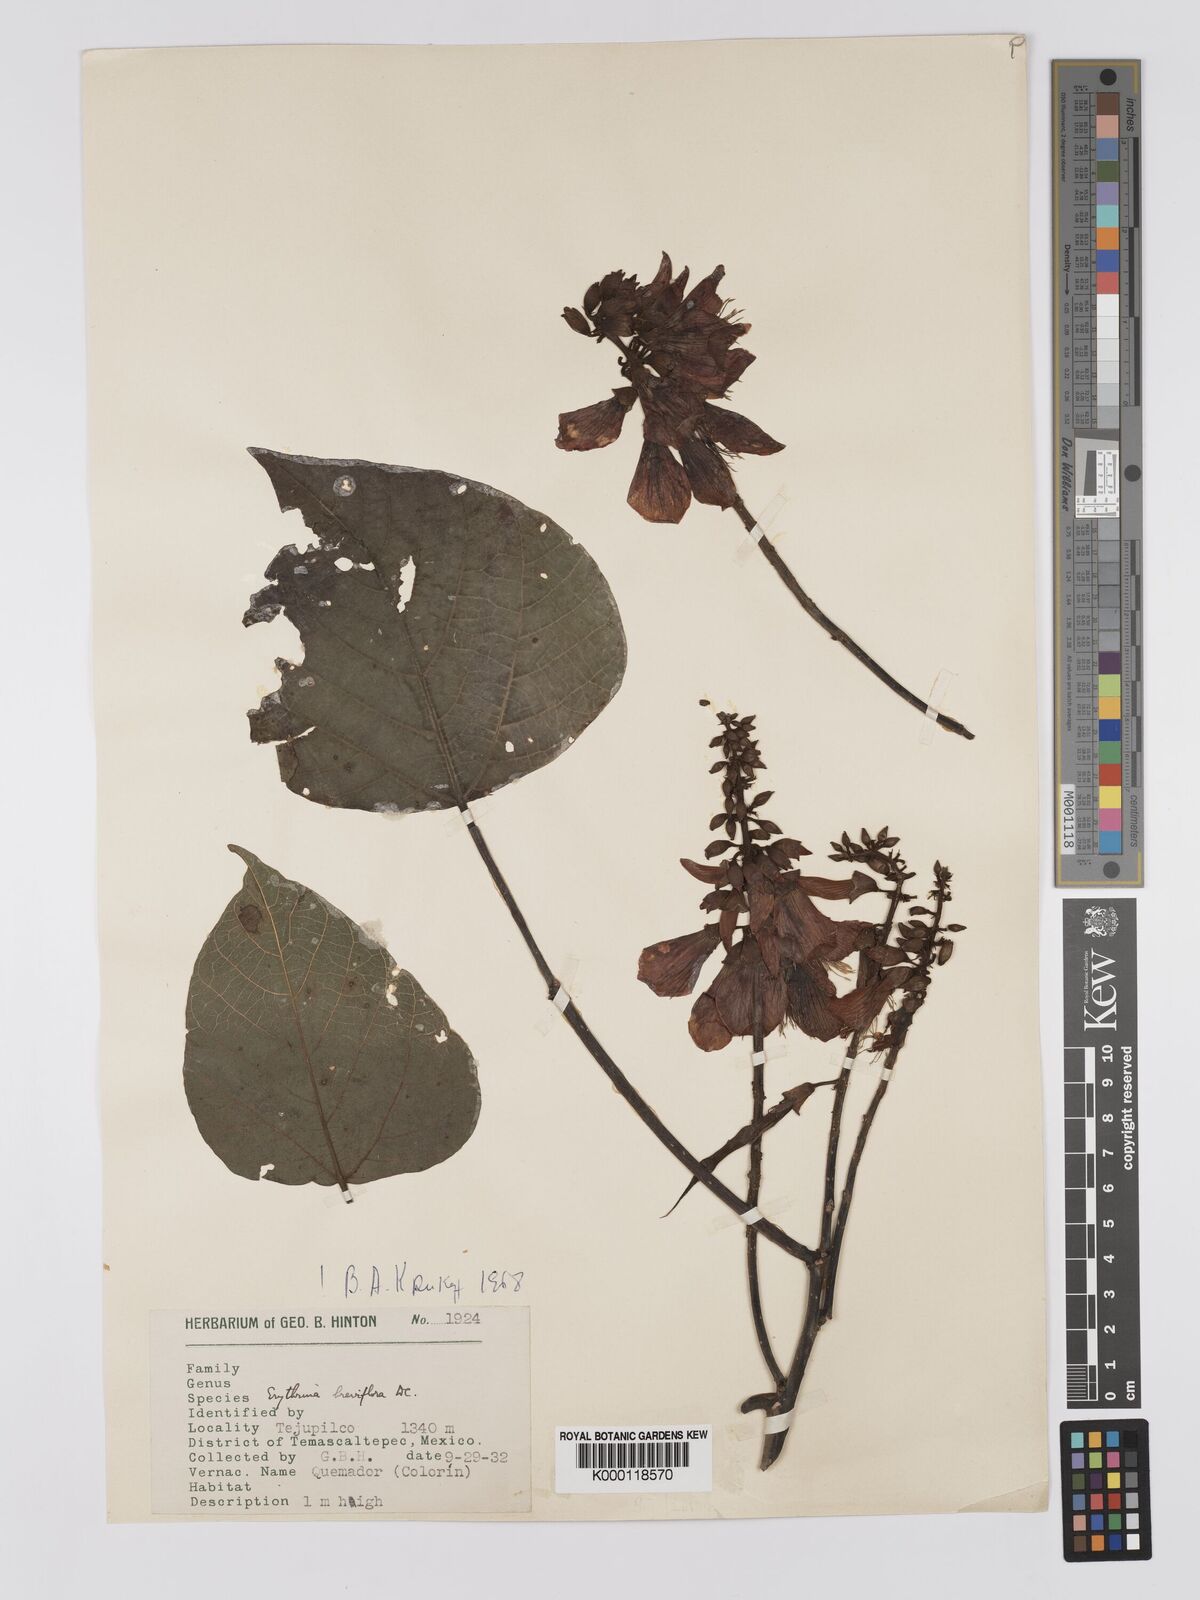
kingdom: Plantae
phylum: Tracheophyta
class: Magnoliopsida
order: Fabales
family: Fabaceae
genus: Erythrina
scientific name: Erythrina breviflora
